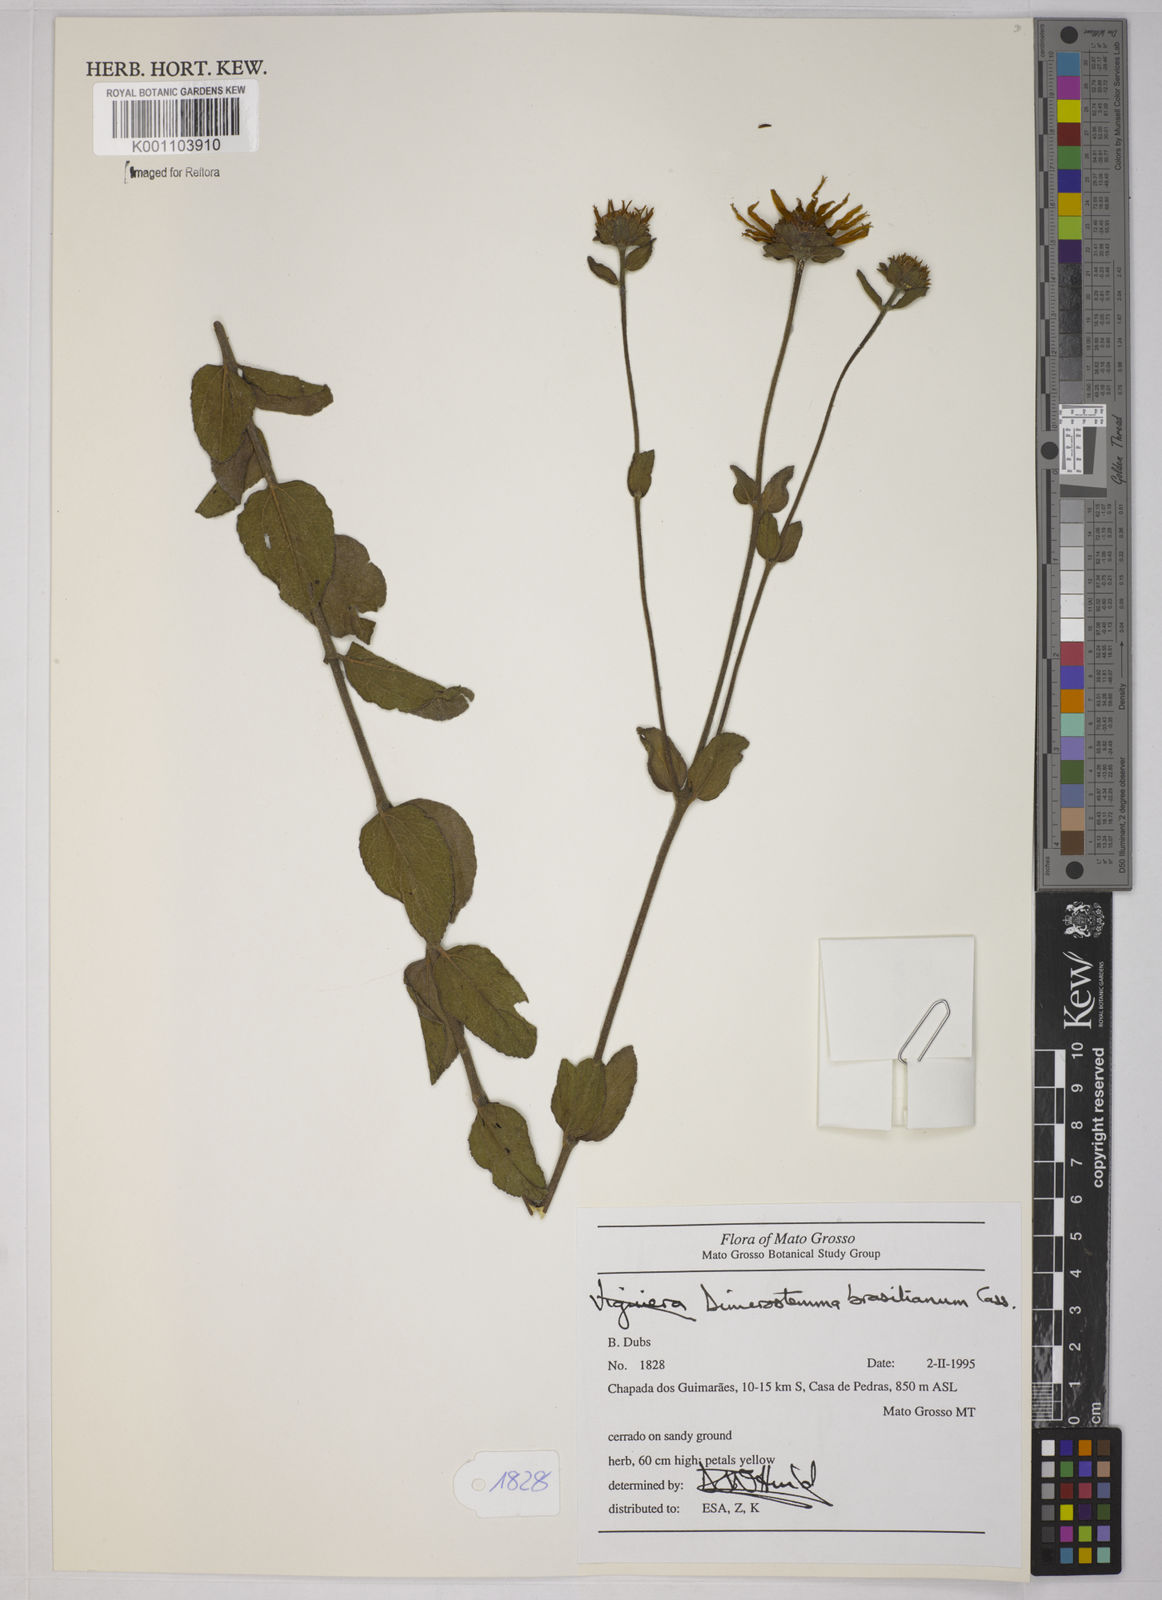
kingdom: Plantae
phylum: Tracheophyta
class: Magnoliopsida
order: Asterales
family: Asteraceae
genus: Dimerostemma
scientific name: Dimerostemma brasilianum
